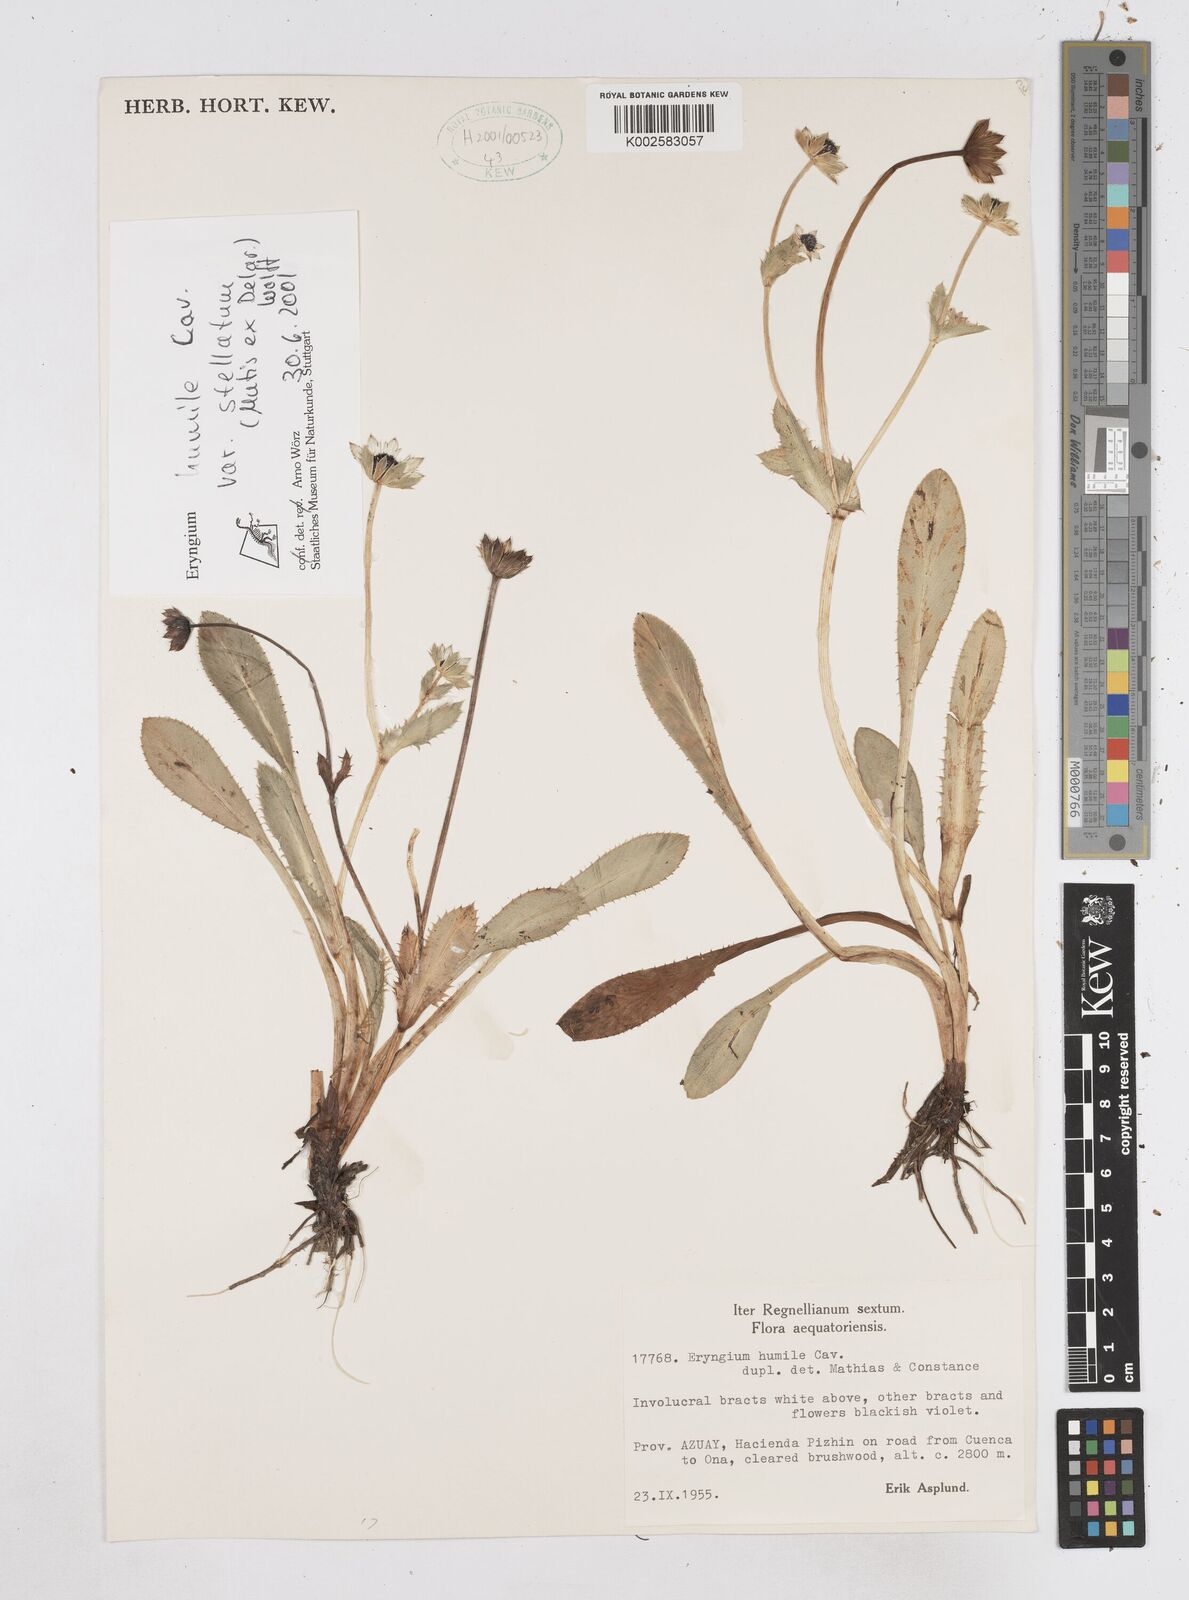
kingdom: Plantae
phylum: Tracheophyta
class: Magnoliopsida
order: Apiales
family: Apiaceae
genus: Eryngium
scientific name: Eryngium humile
